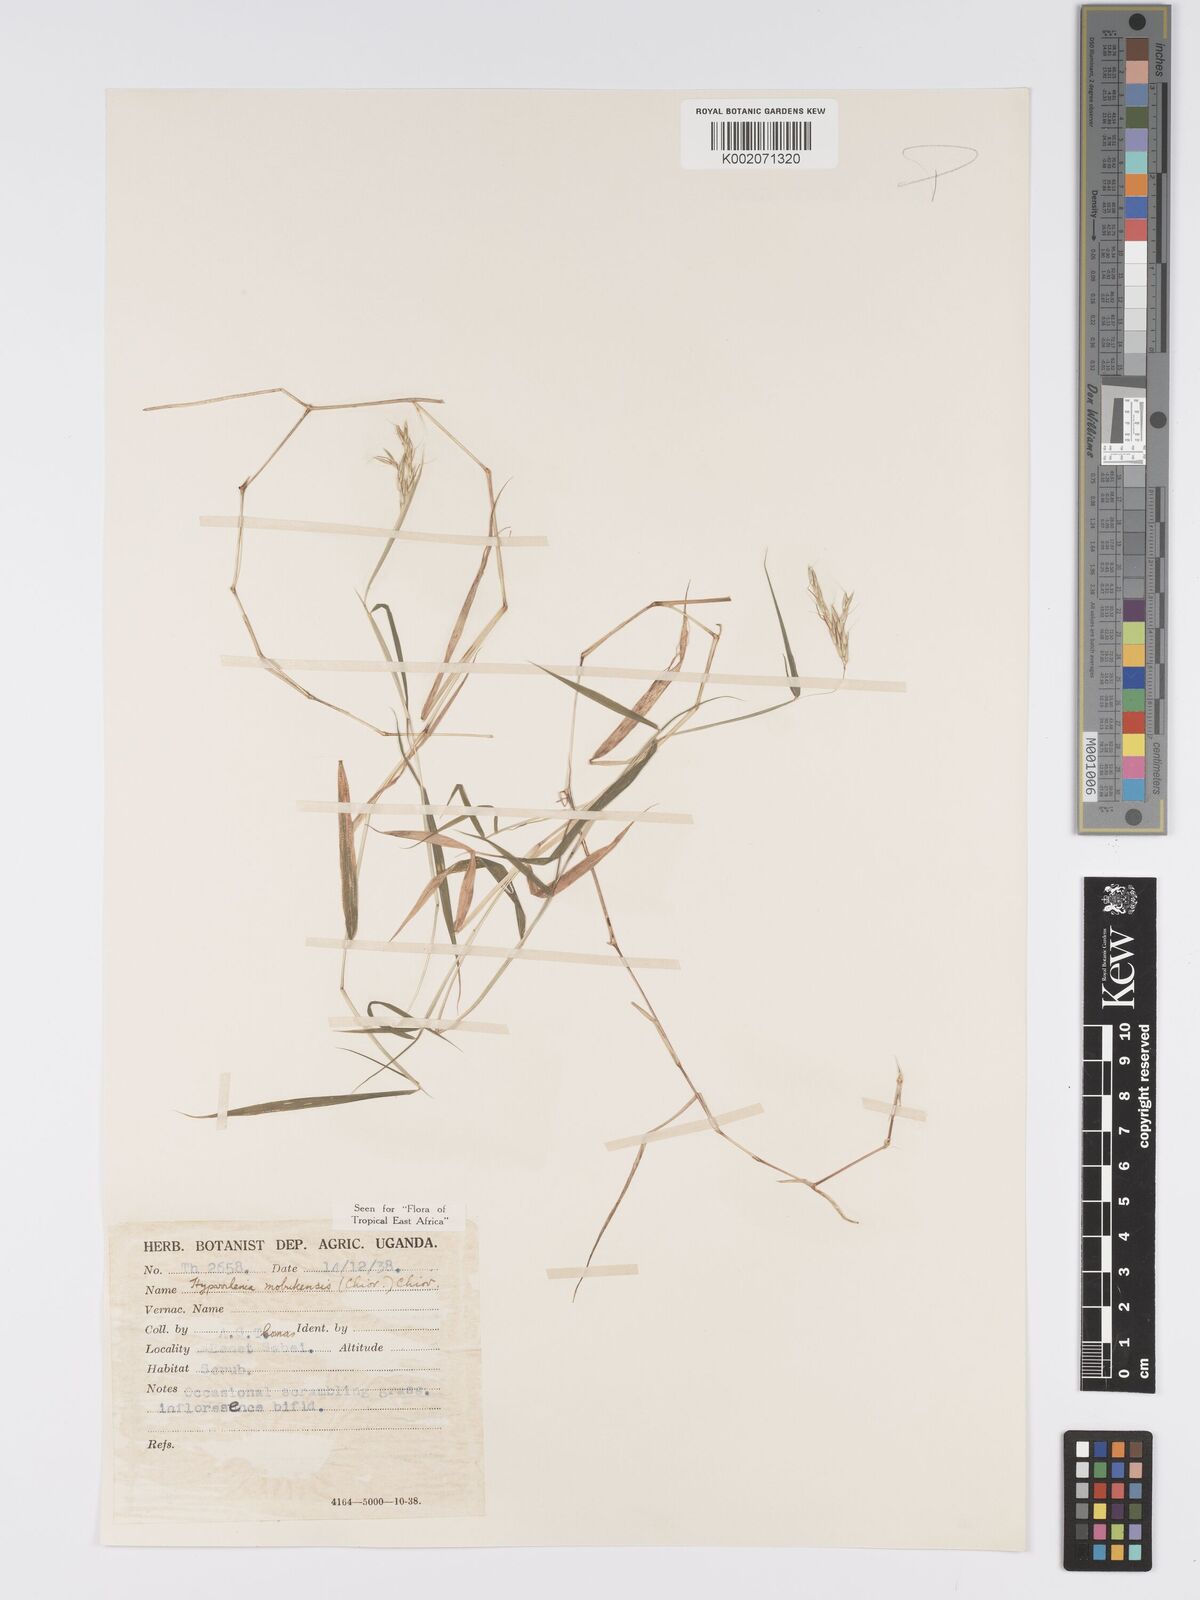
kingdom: Plantae
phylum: Tracheophyta
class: Liliopsida
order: Poales
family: Poaceae
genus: Hyparrhenia
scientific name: Hyparrhenia mobukensis
